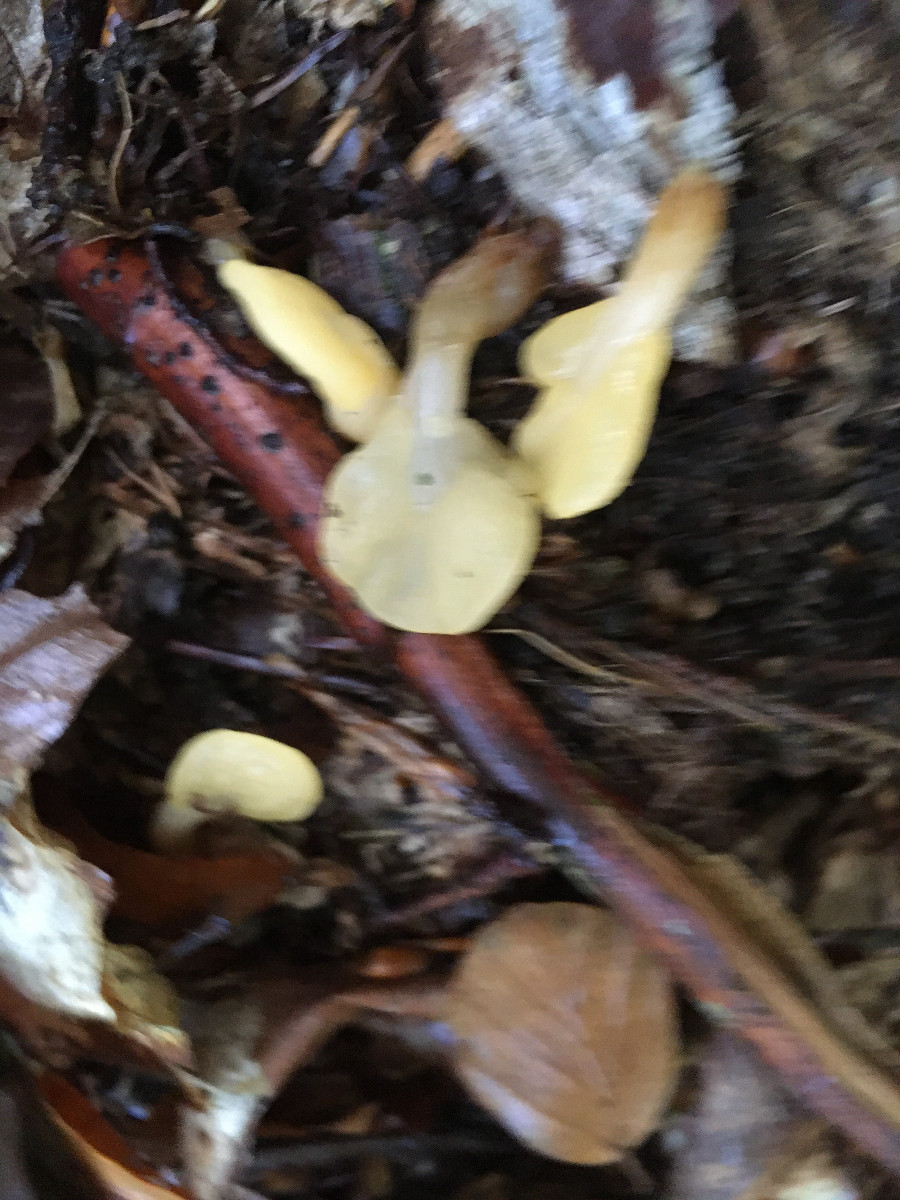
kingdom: Fungi
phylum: Ascomycota
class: Leotiomycetes
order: Rhytismatales
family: Cudoniaceae
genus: Spathularia
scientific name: Spathularia flavida
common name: gul spatelsvamp
